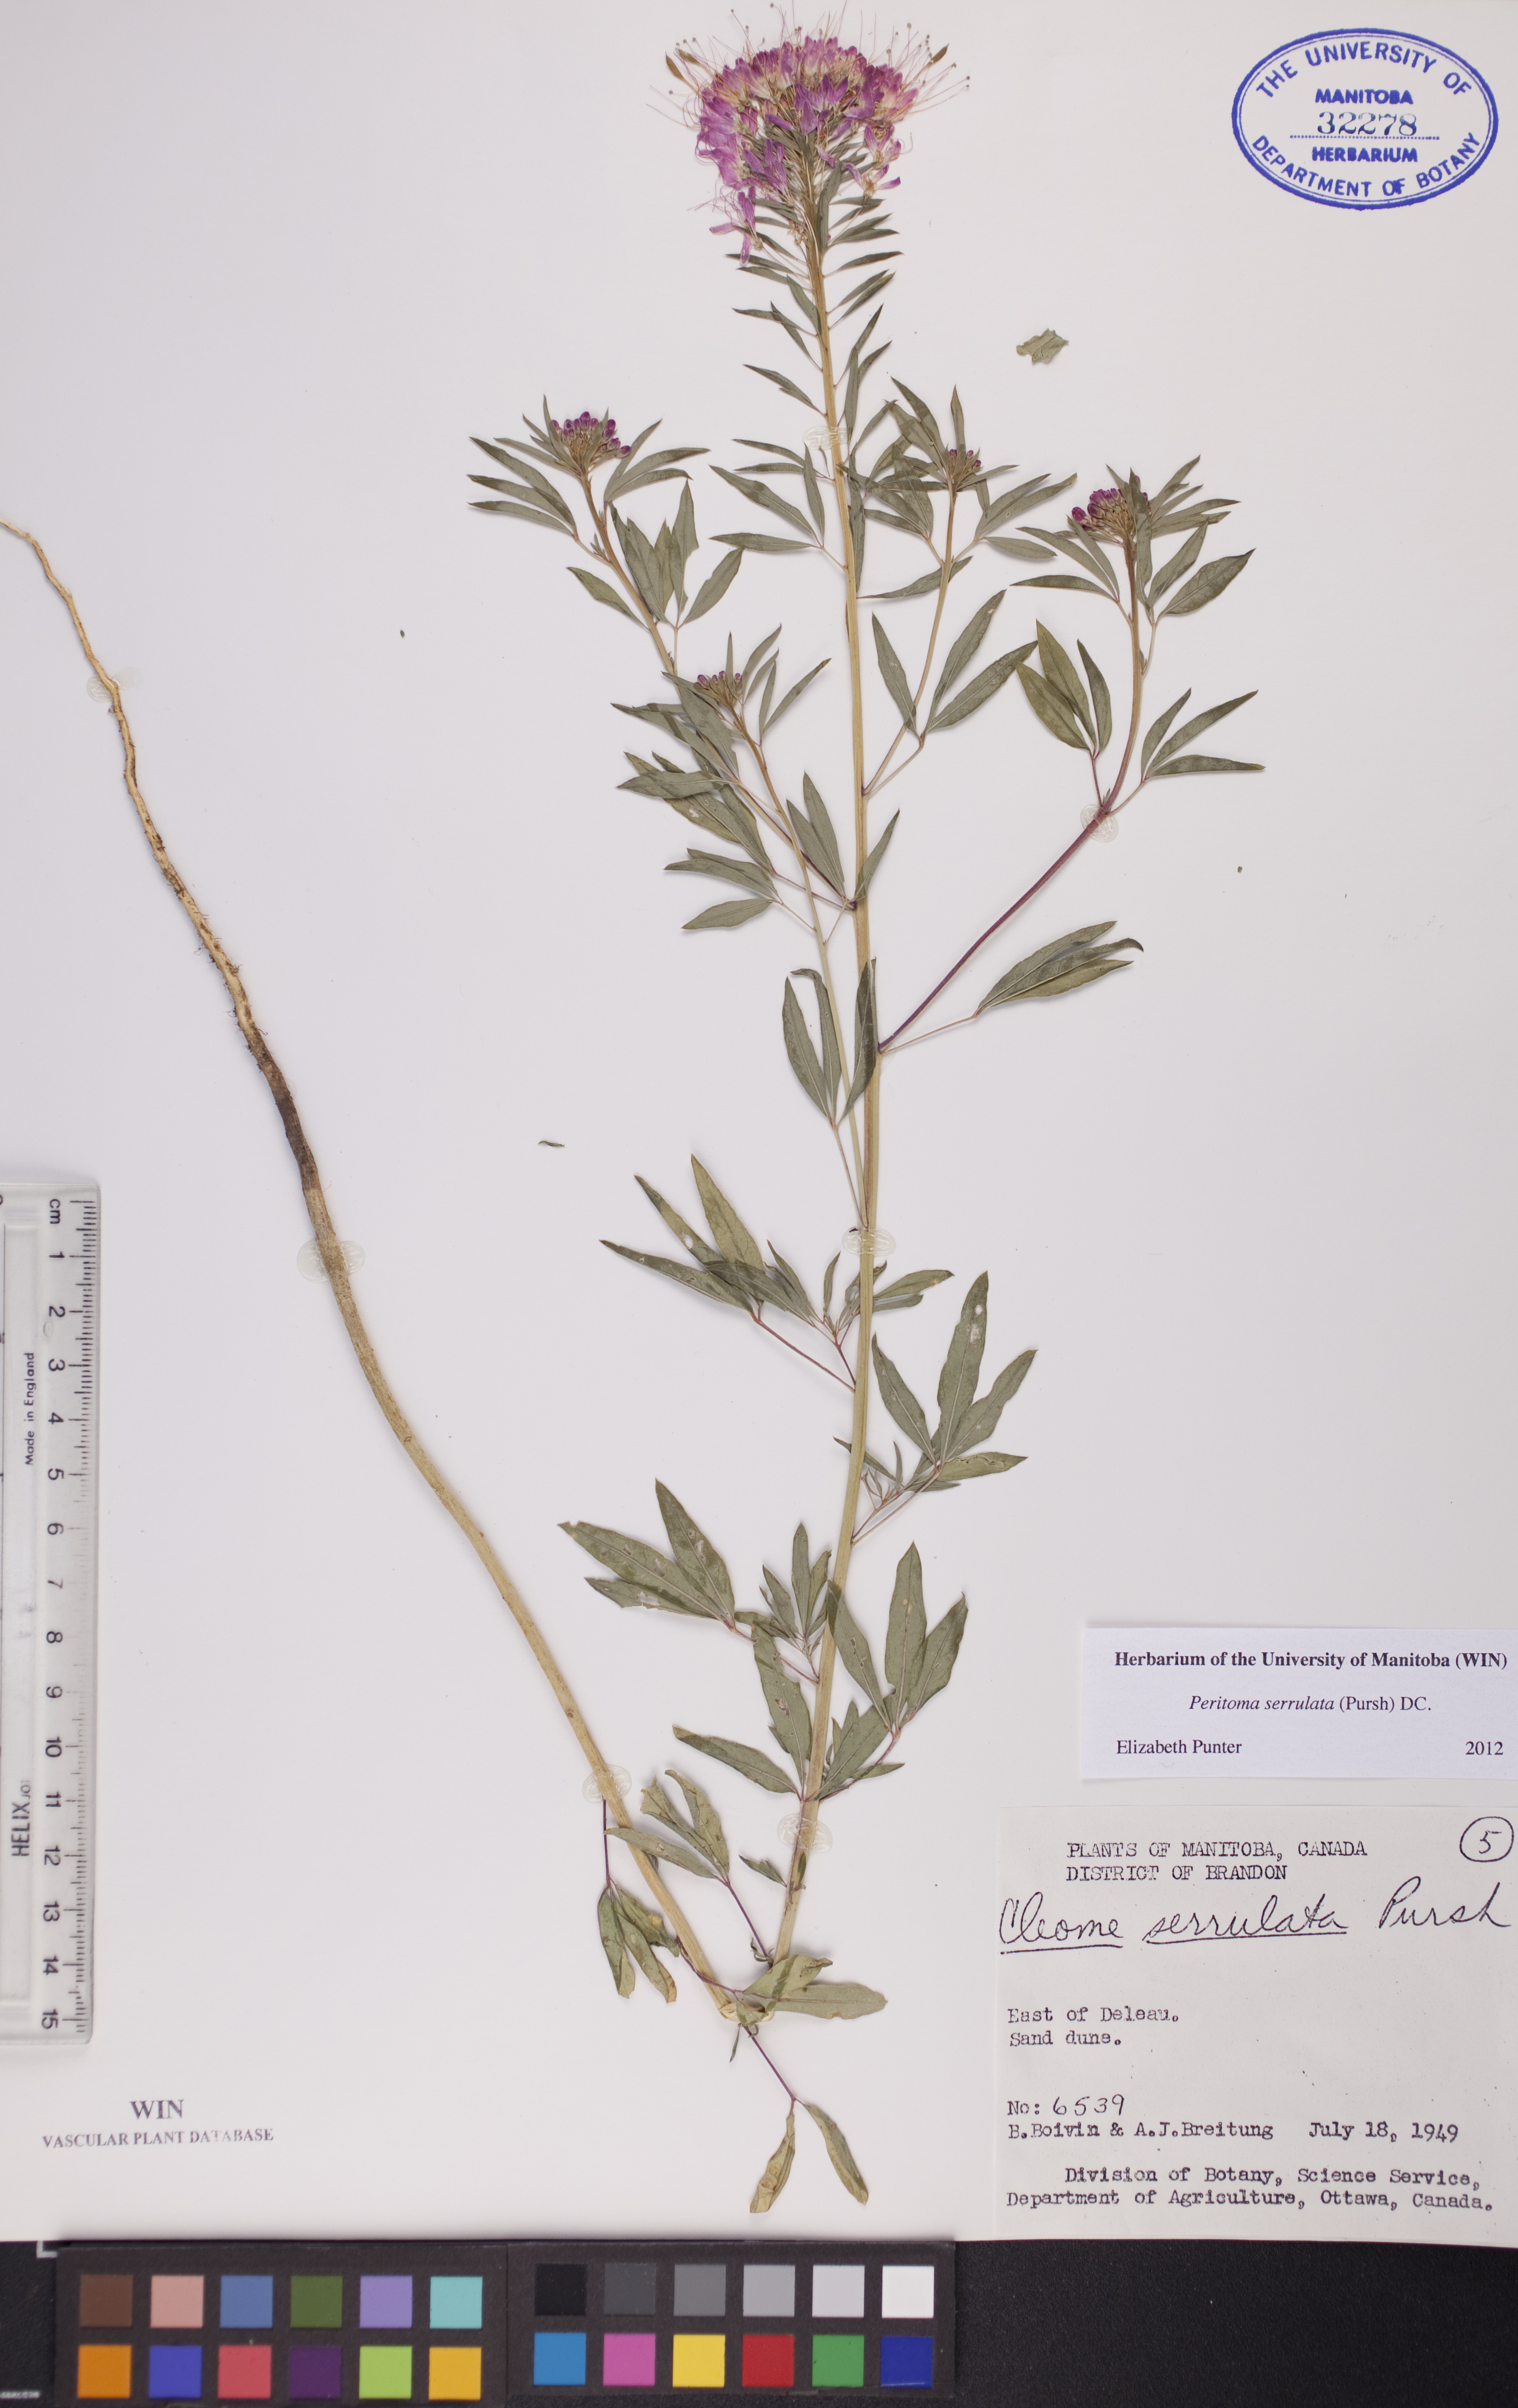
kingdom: Plantae
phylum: Tracheophyta
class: Magnoliopsida
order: Brassicales
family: Cleomaceae
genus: Cleomella
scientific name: Cleomella serrulata
